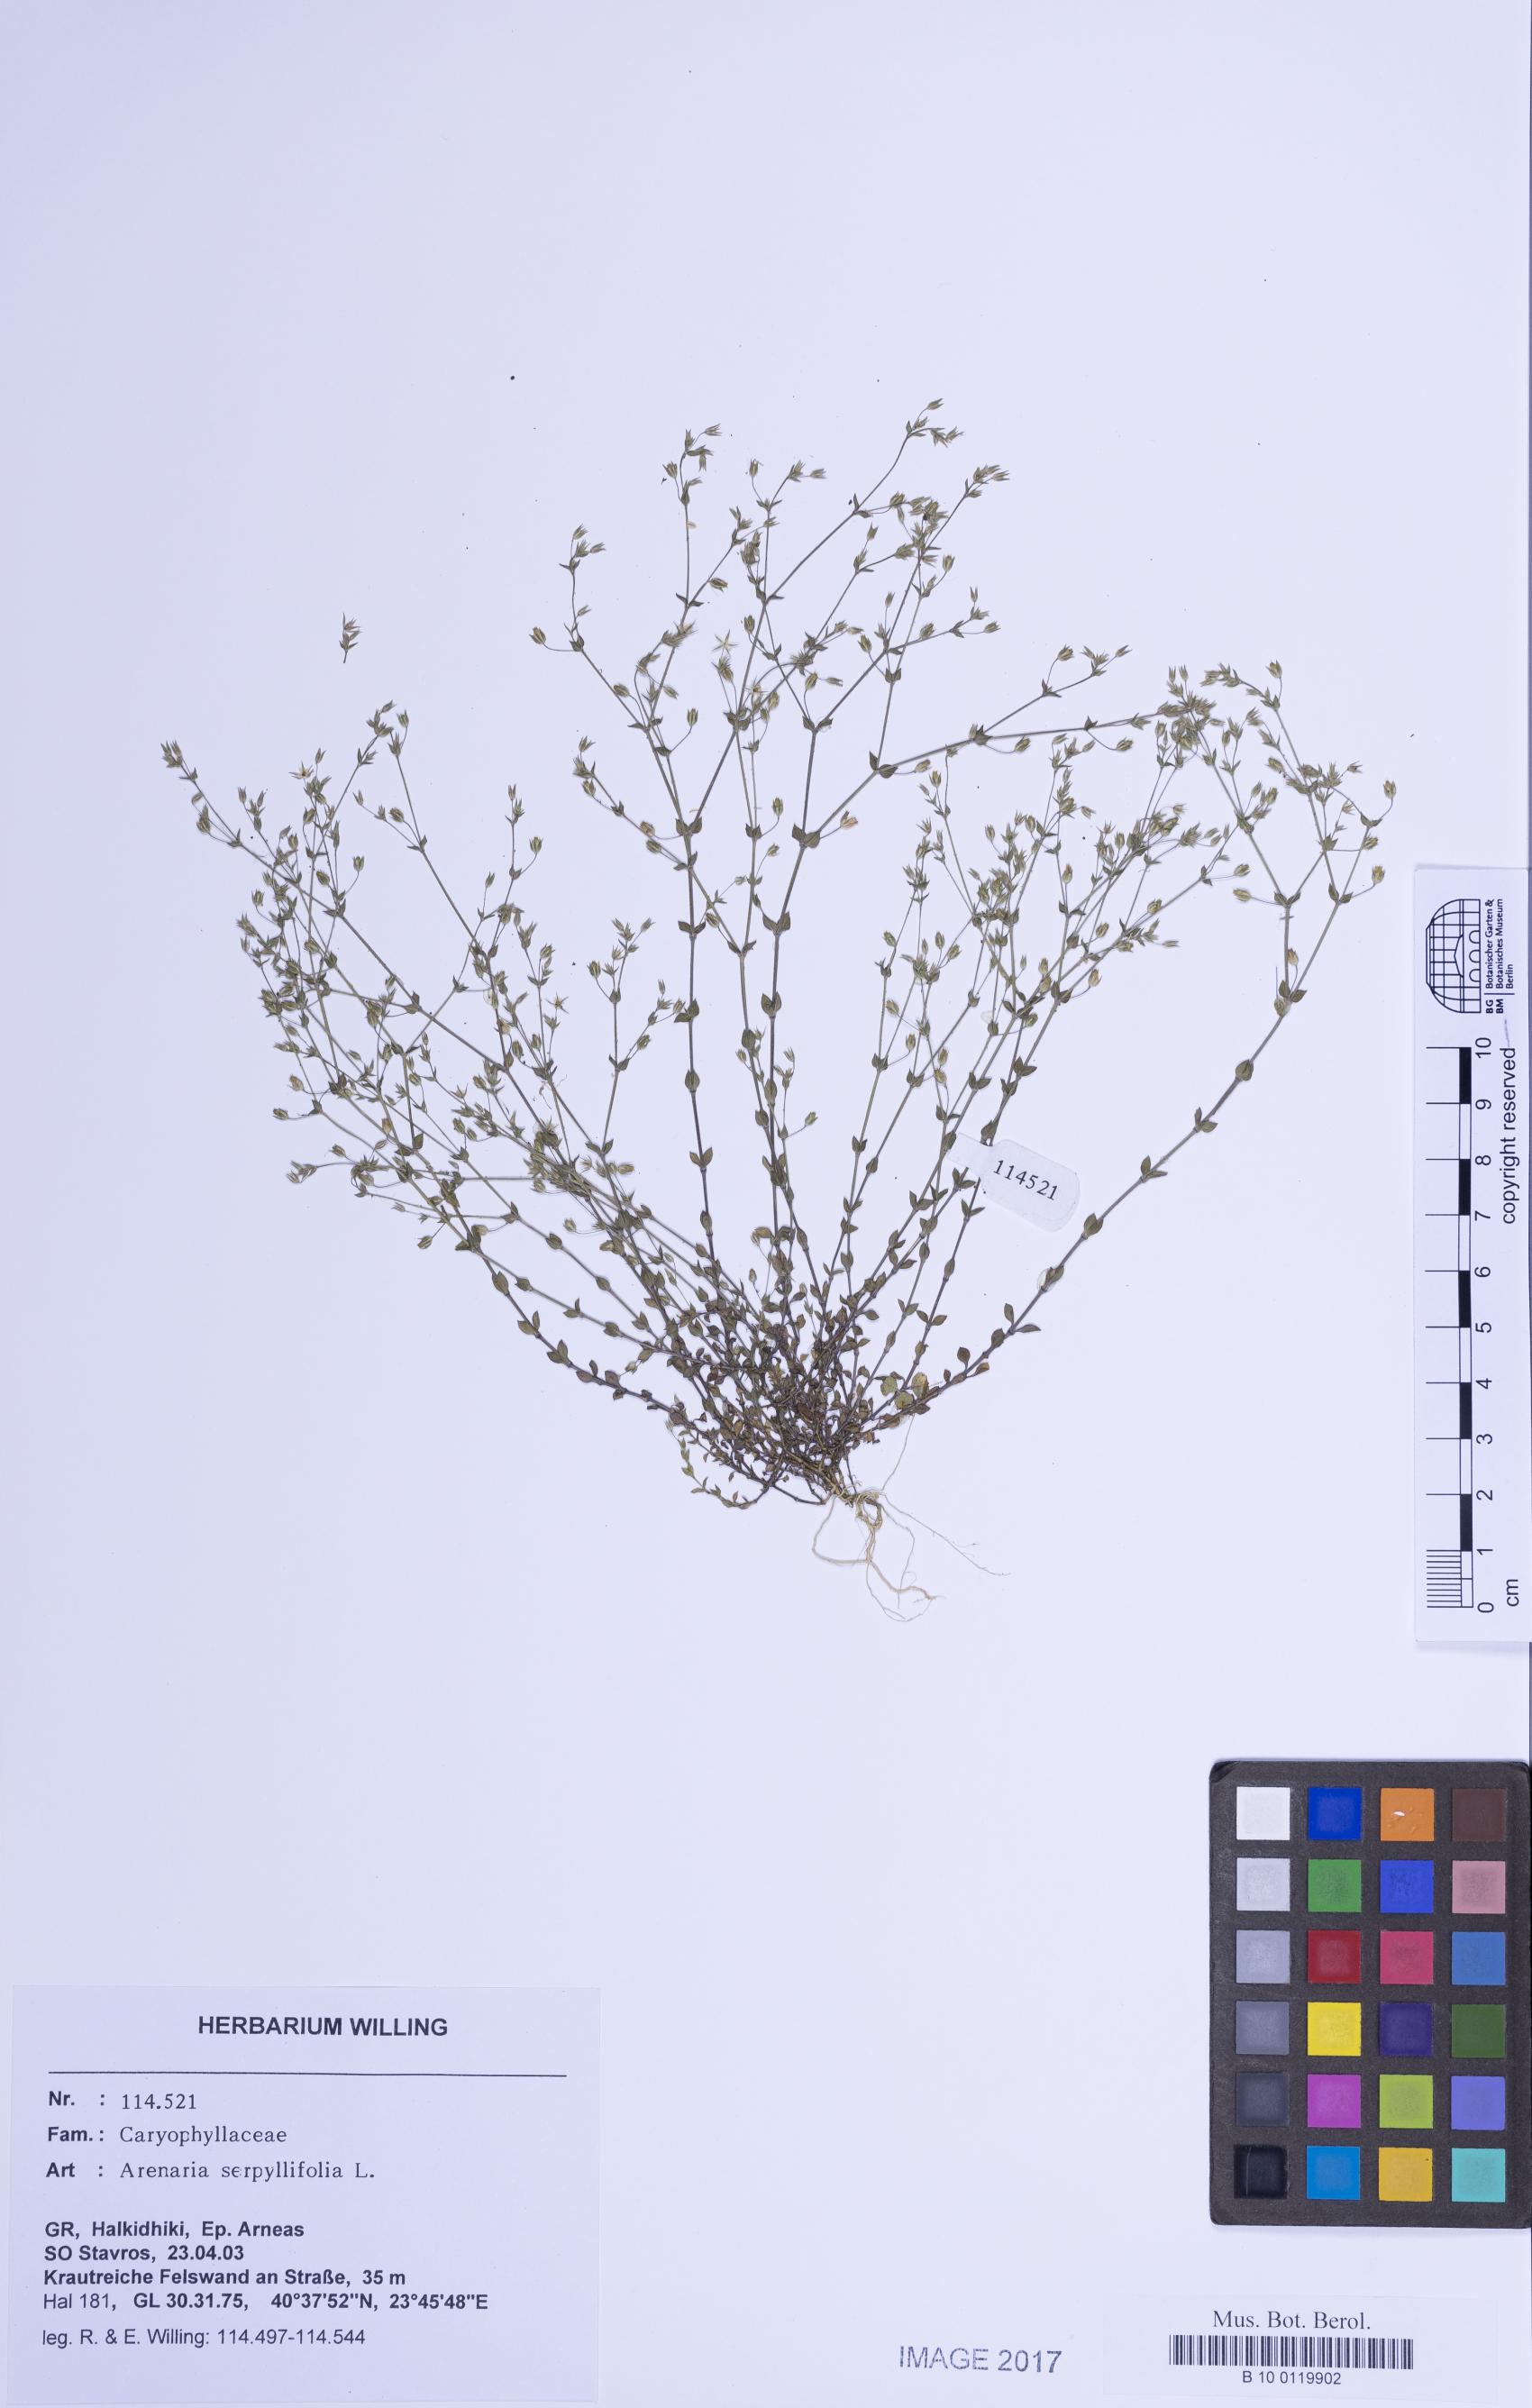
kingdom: Plantae
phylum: Tracheophyta
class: Magnoliopsida
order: Caryophyllales
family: Caryophyllaceae
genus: Arenaria
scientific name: Arenaria serpyllifolia
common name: Thyme-leaved sandwort
